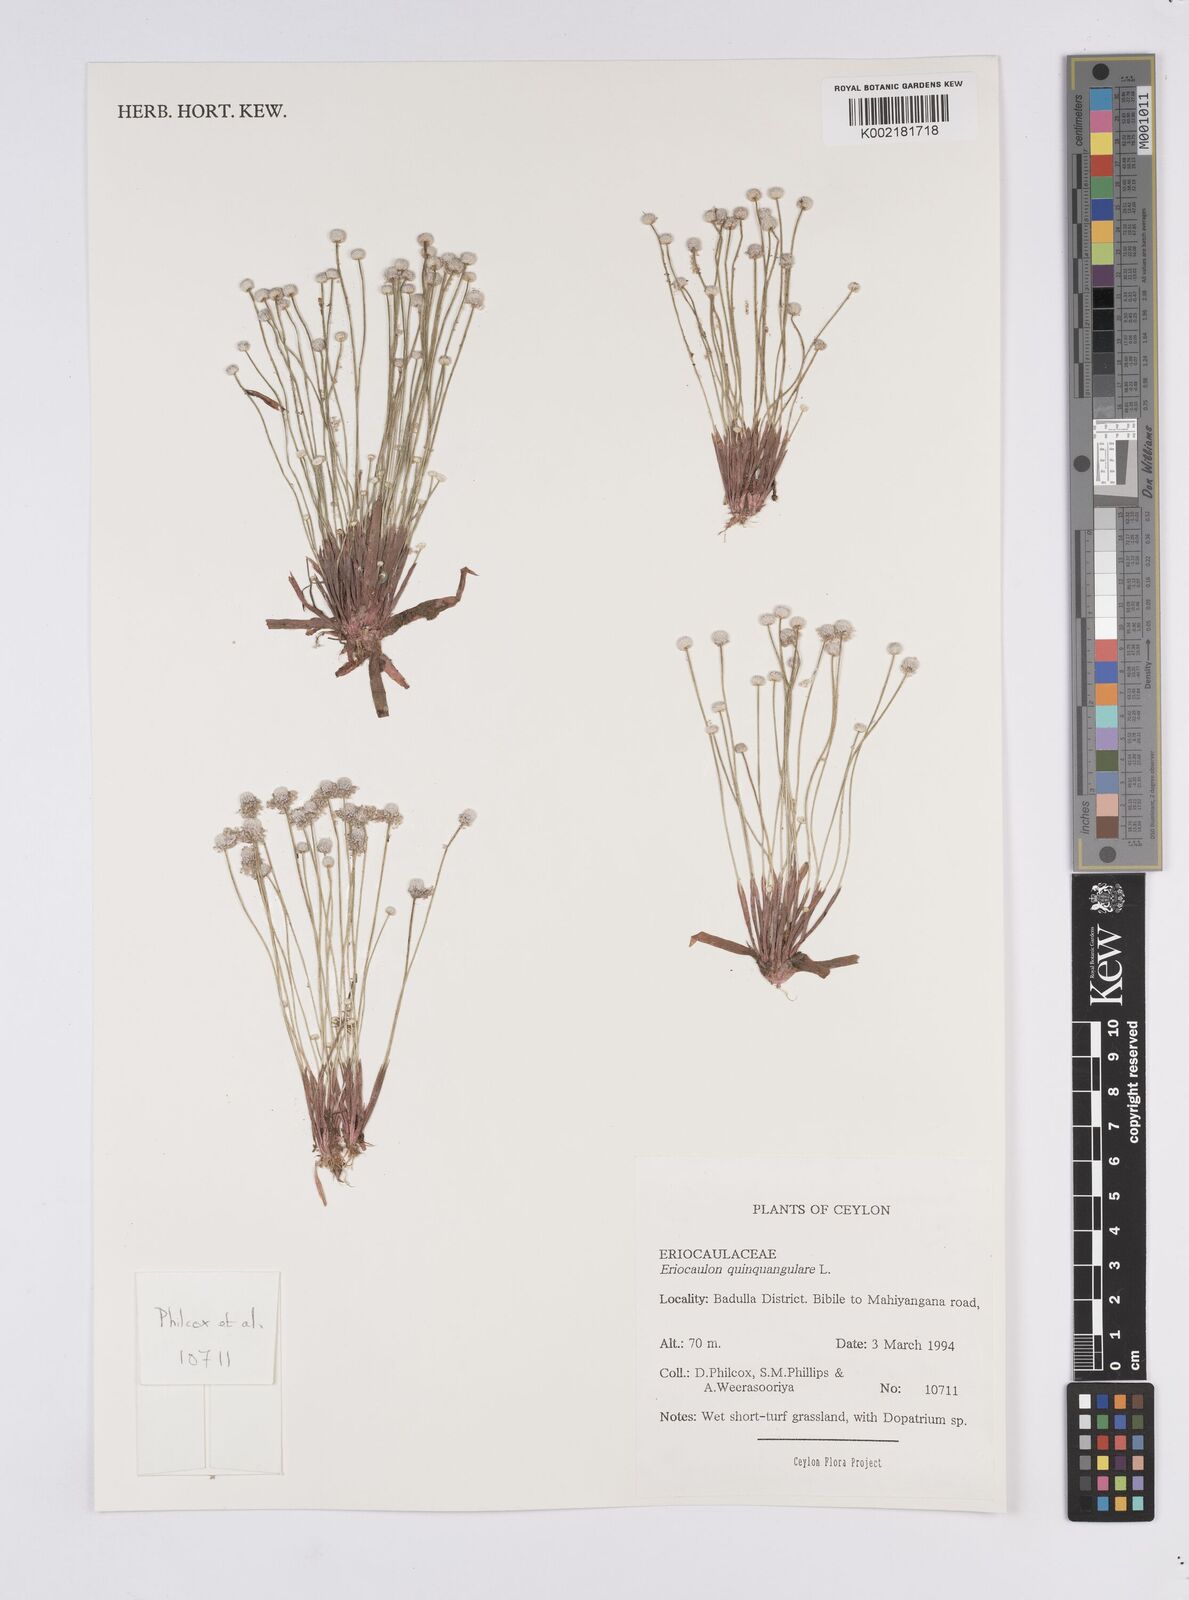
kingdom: Plantae
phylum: Tracheophyta
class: Liliopsida
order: Poales
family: Eriocaulaceae
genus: Eriocaulon
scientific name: Eriocaulon quinquangulare
